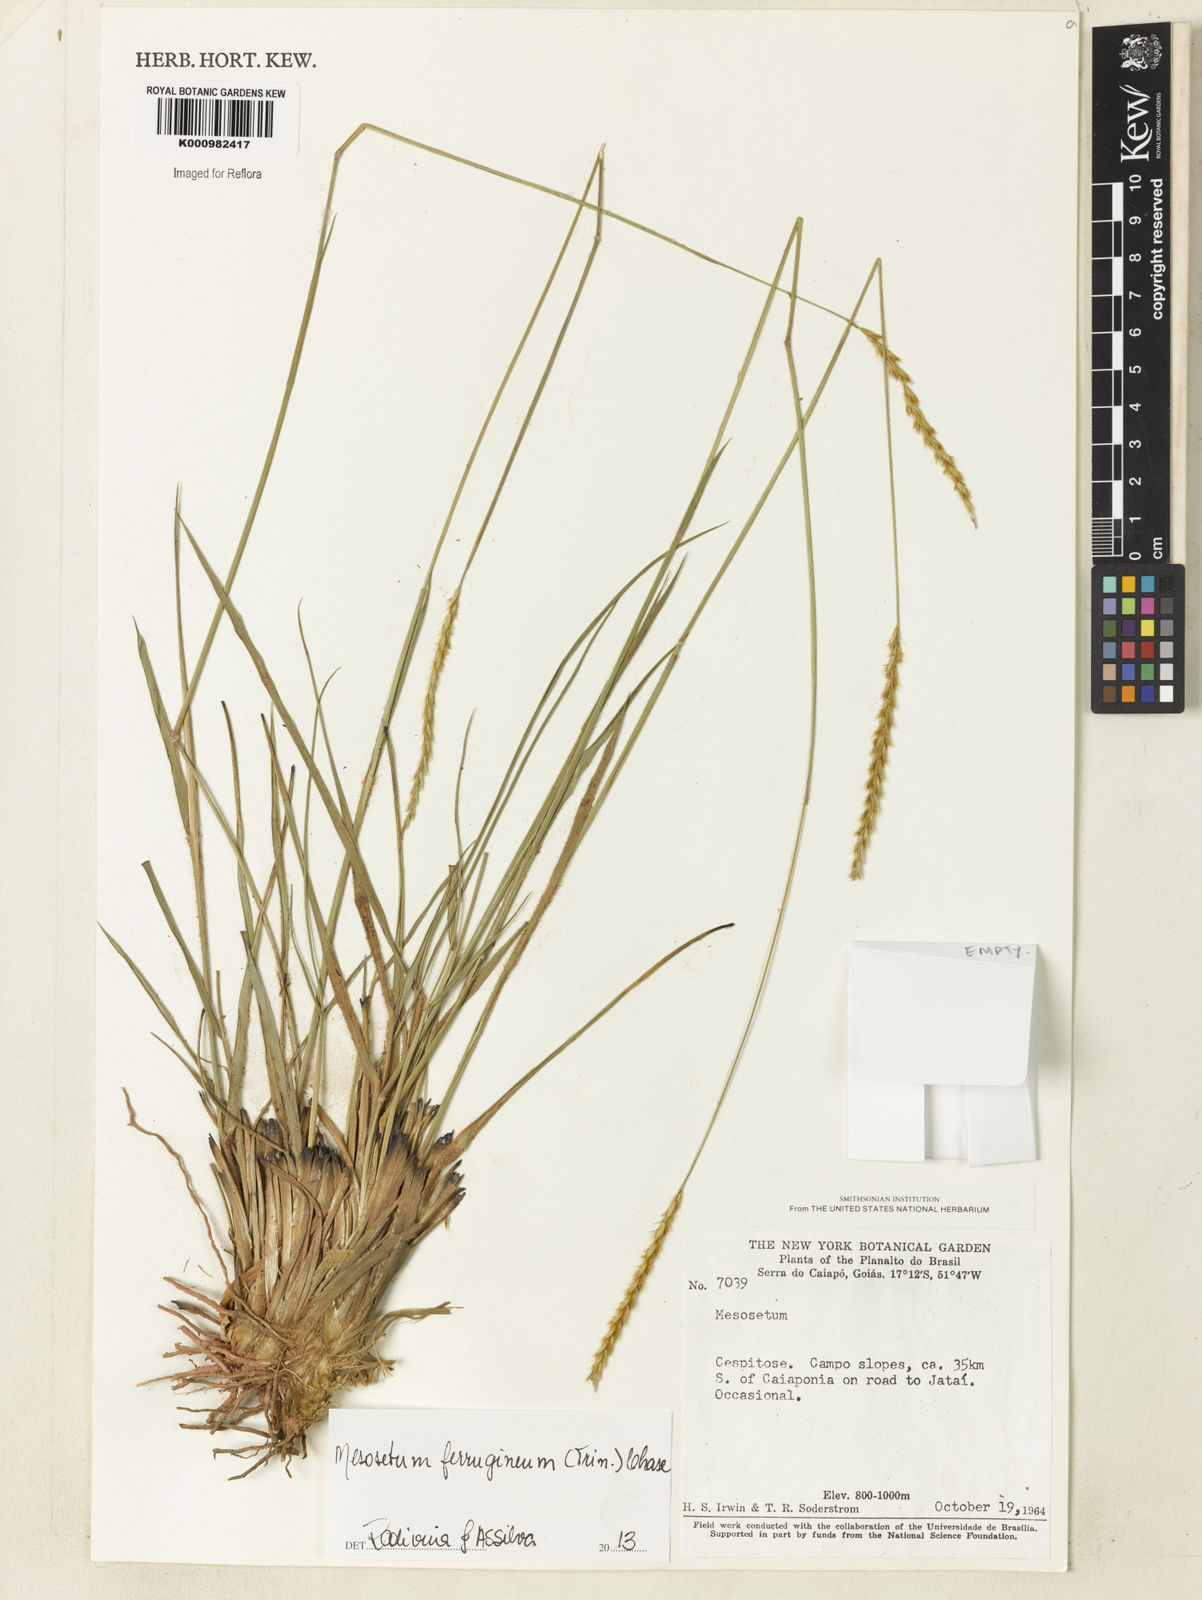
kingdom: Plantae
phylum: Tracheophyta
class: Liliopsida
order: Poales
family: Poaceae
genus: Mesosetum
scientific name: Mesosetum ferrugineum
